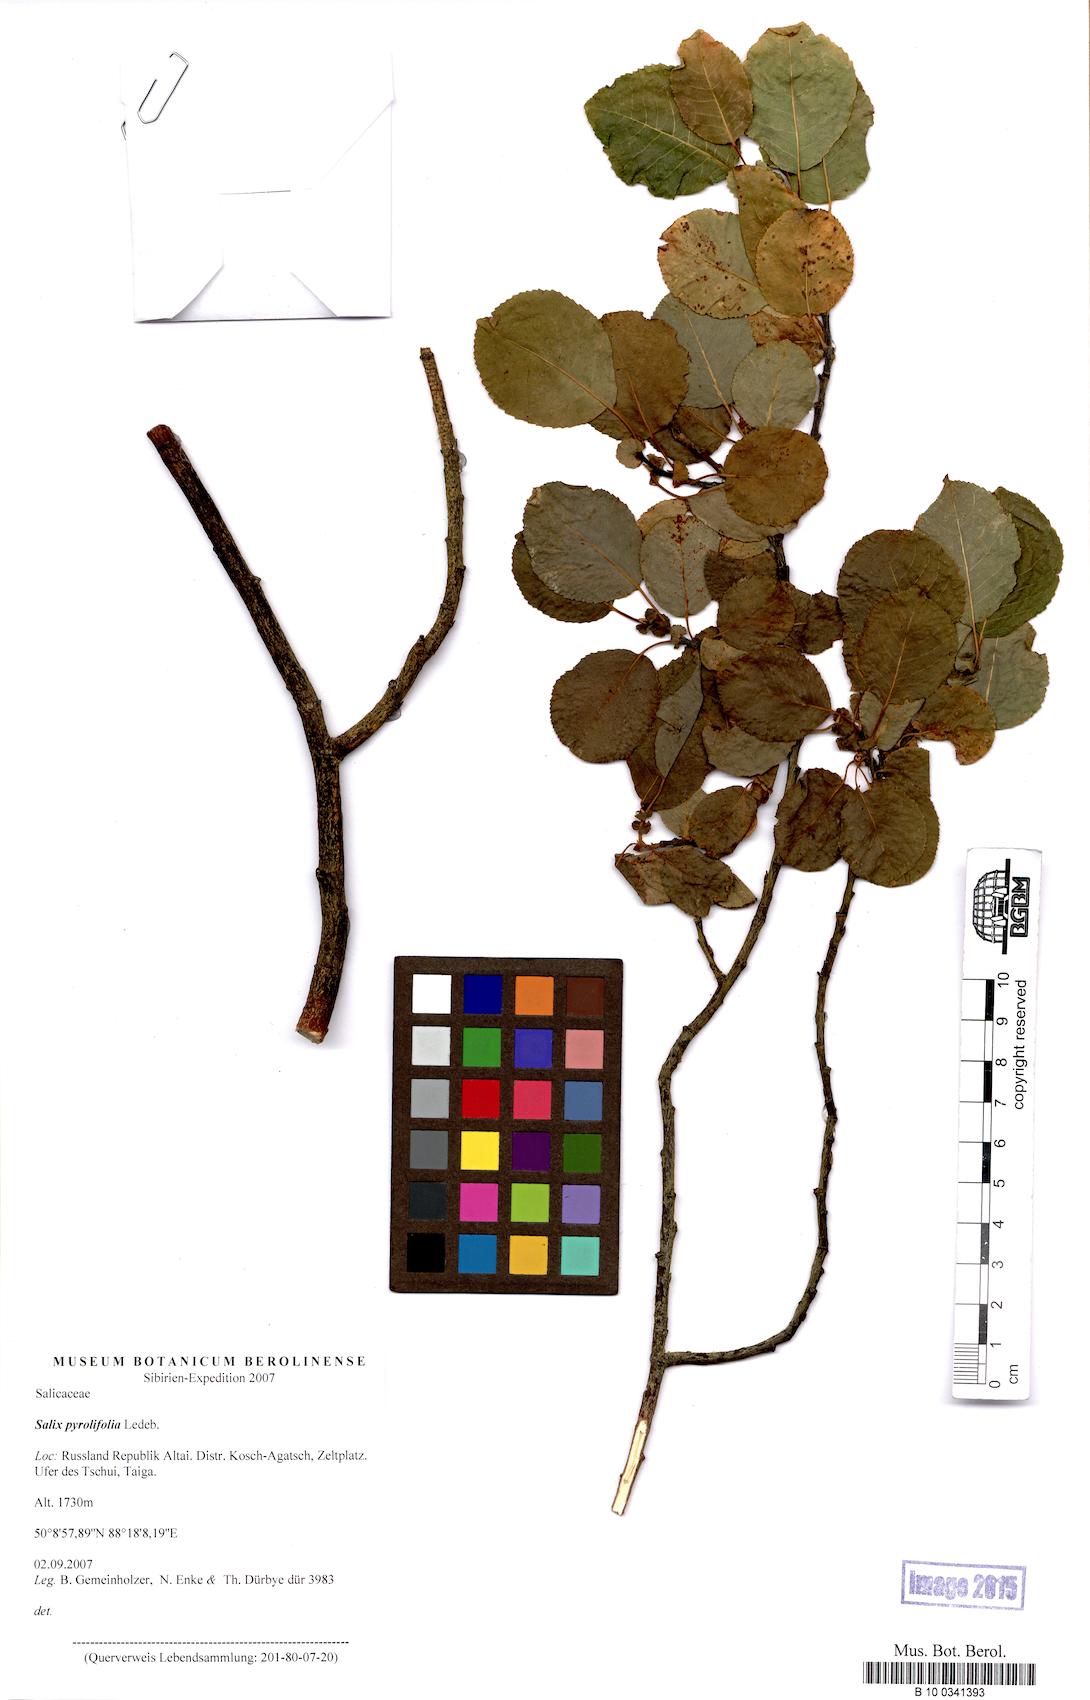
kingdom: Plantae
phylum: Tracheophyta
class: Magnoliopsida
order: Malpighiales
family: Salicaceae
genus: Salix
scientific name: Salix pyrolifolia
